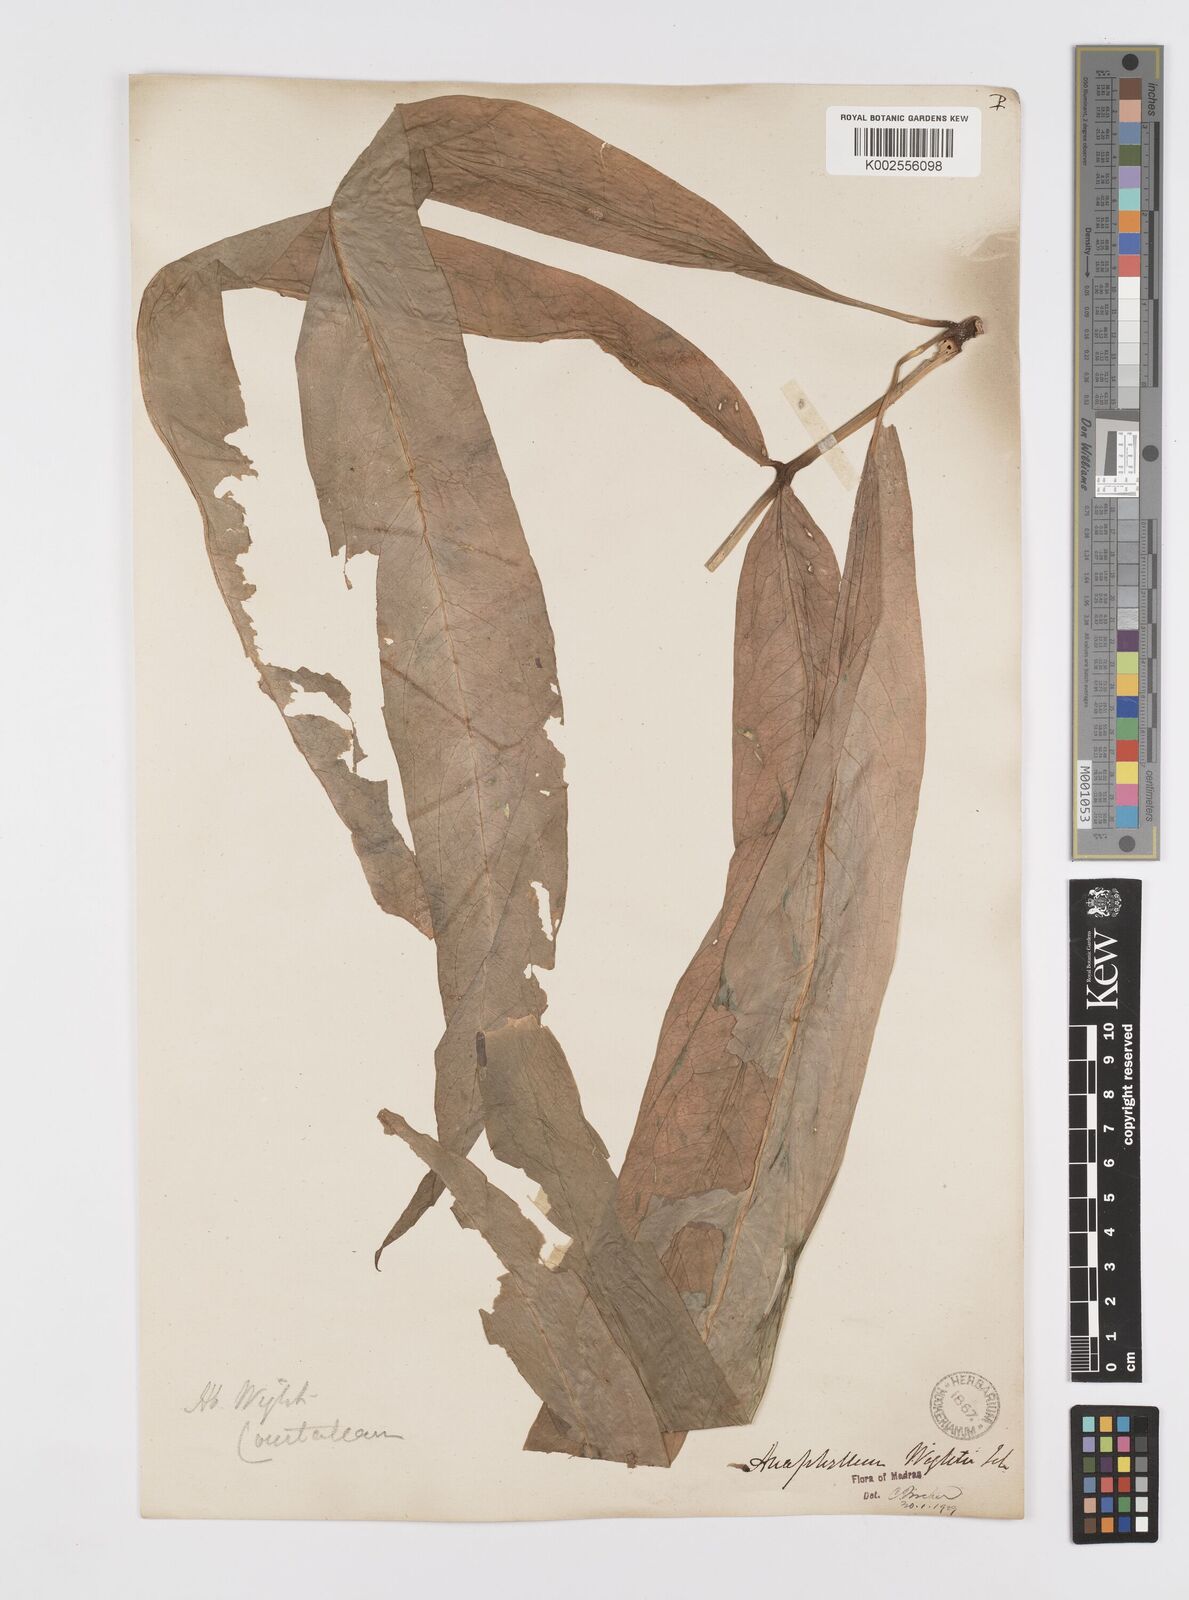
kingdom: Plantae
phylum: Tracheophyta
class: Liliopsida
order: Alismatales
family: Araceae
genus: Anaphyllum
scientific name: Anaphyllum wightii
